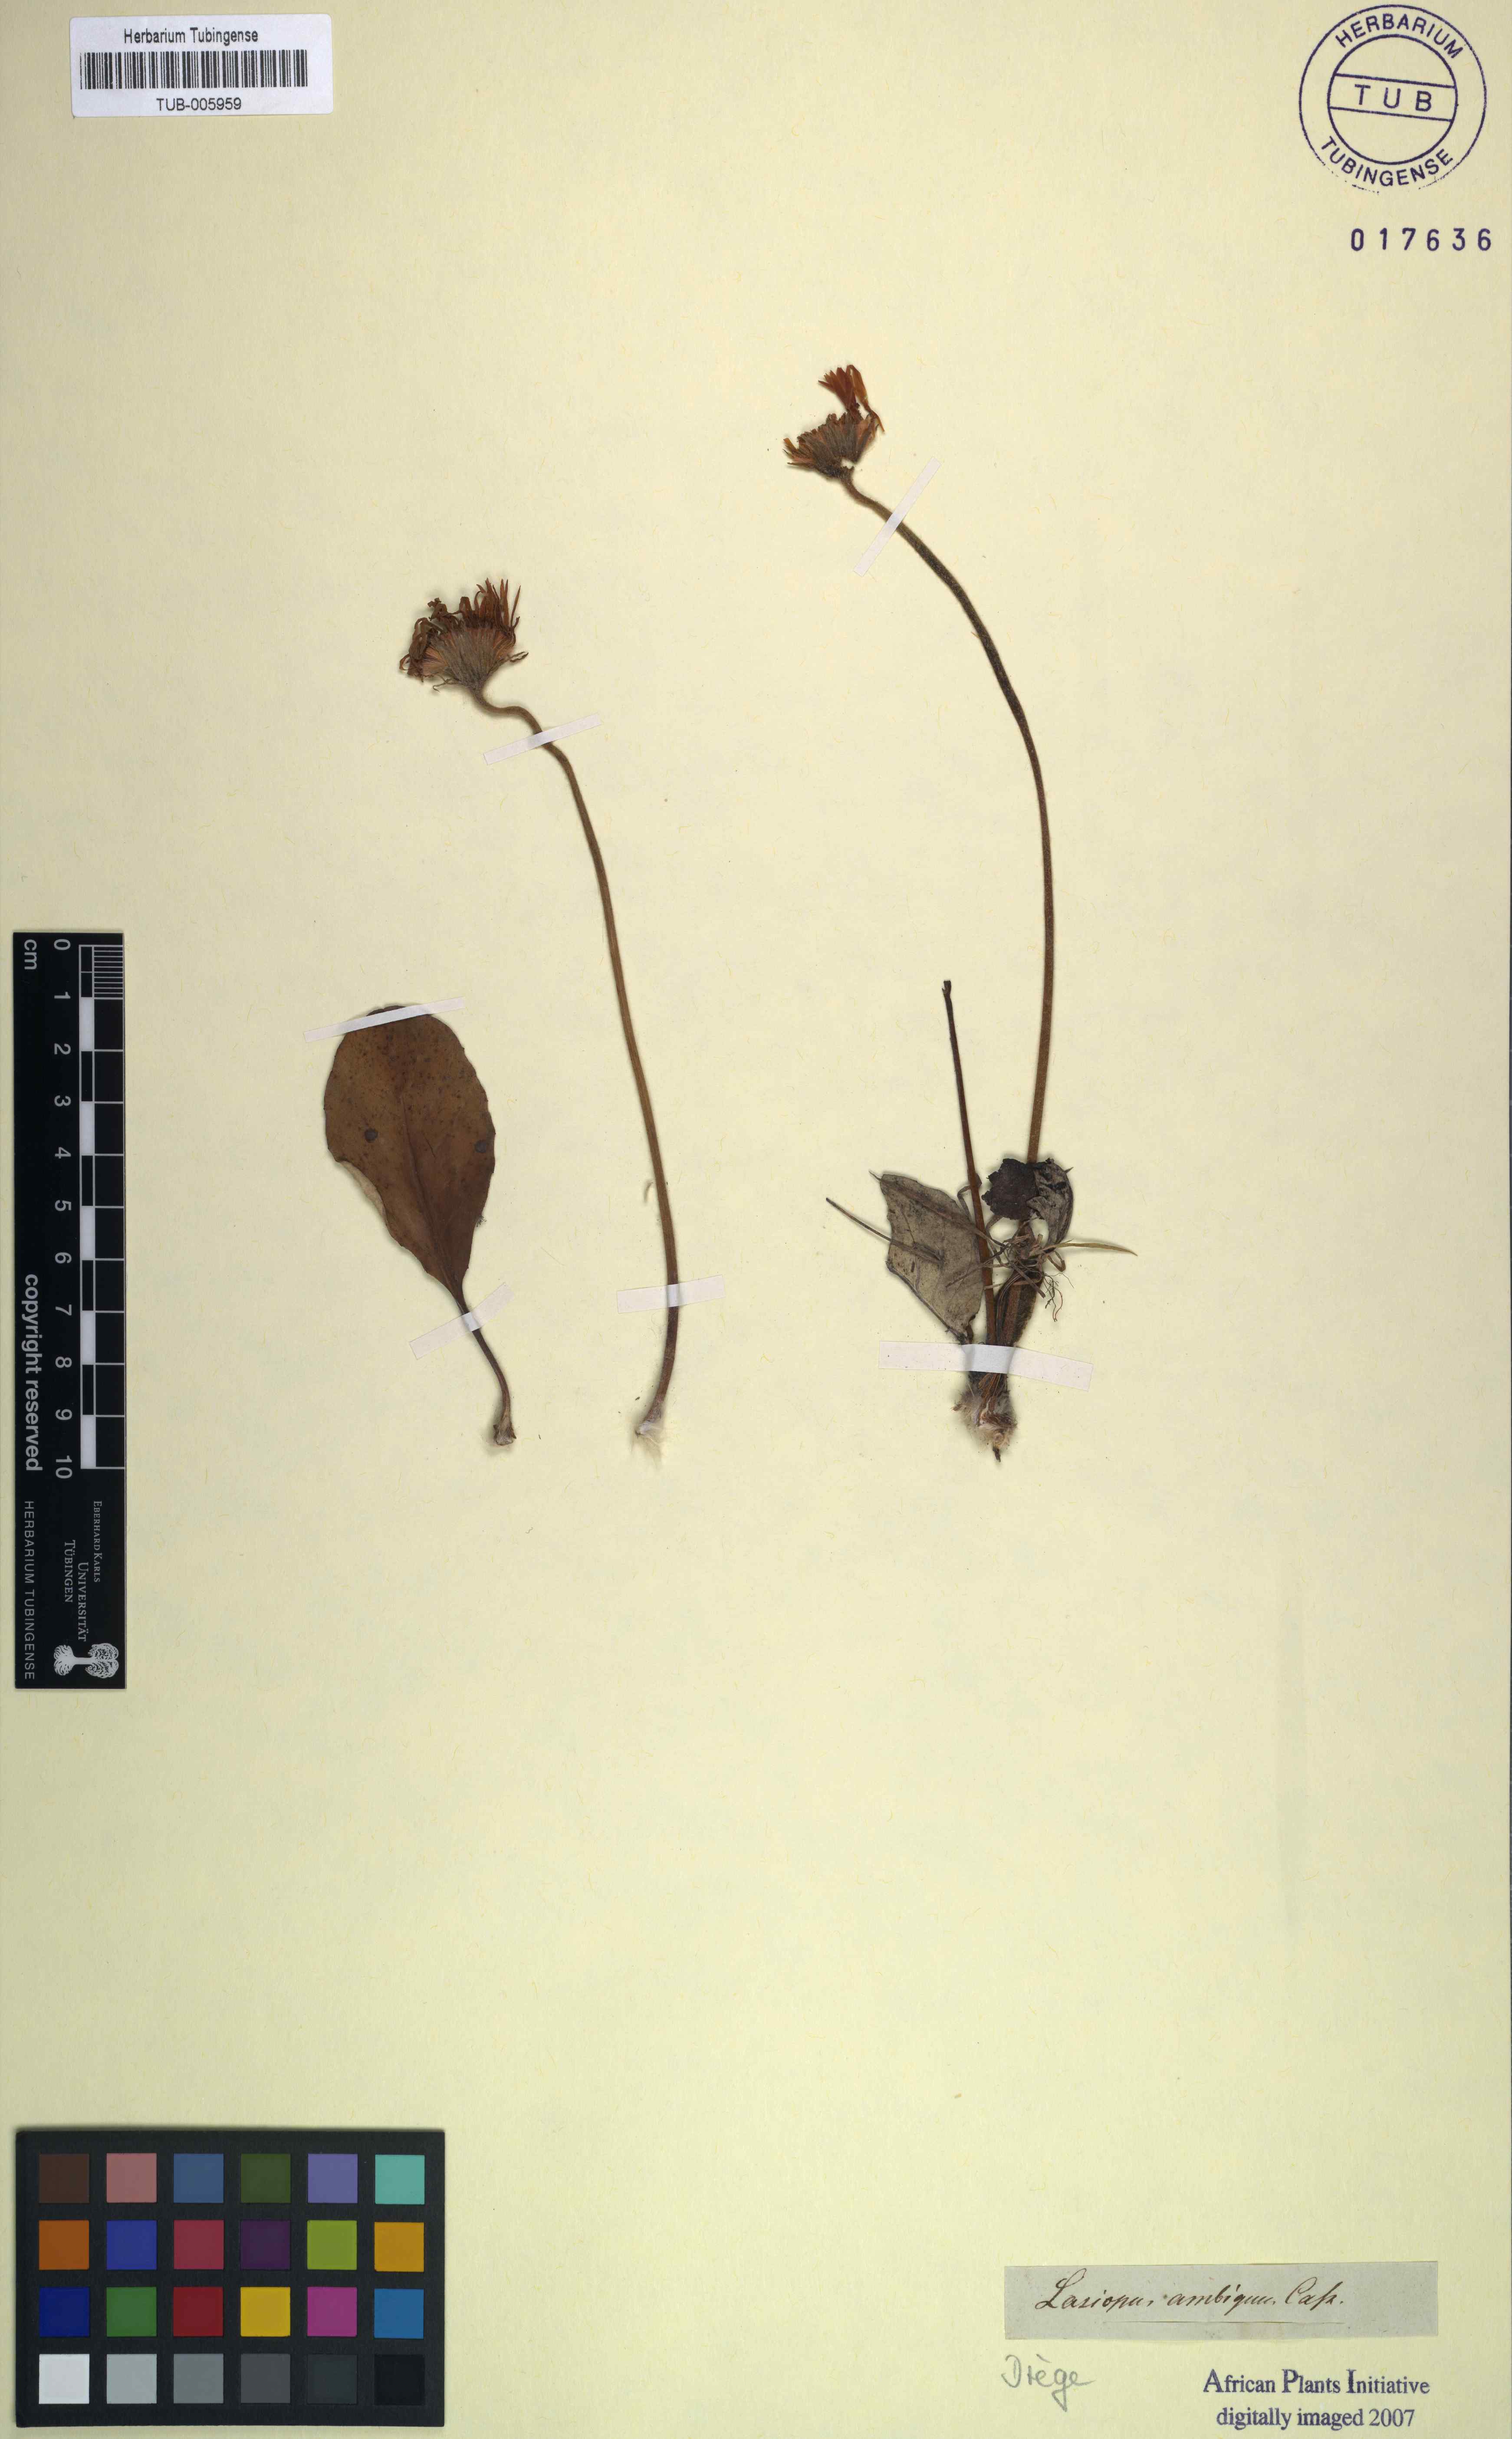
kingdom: Plantae
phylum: Tracheophyta
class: Magnoliopsida
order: Asterales
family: Asteraceae
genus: Gerbera
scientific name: Gerbera ambigua
